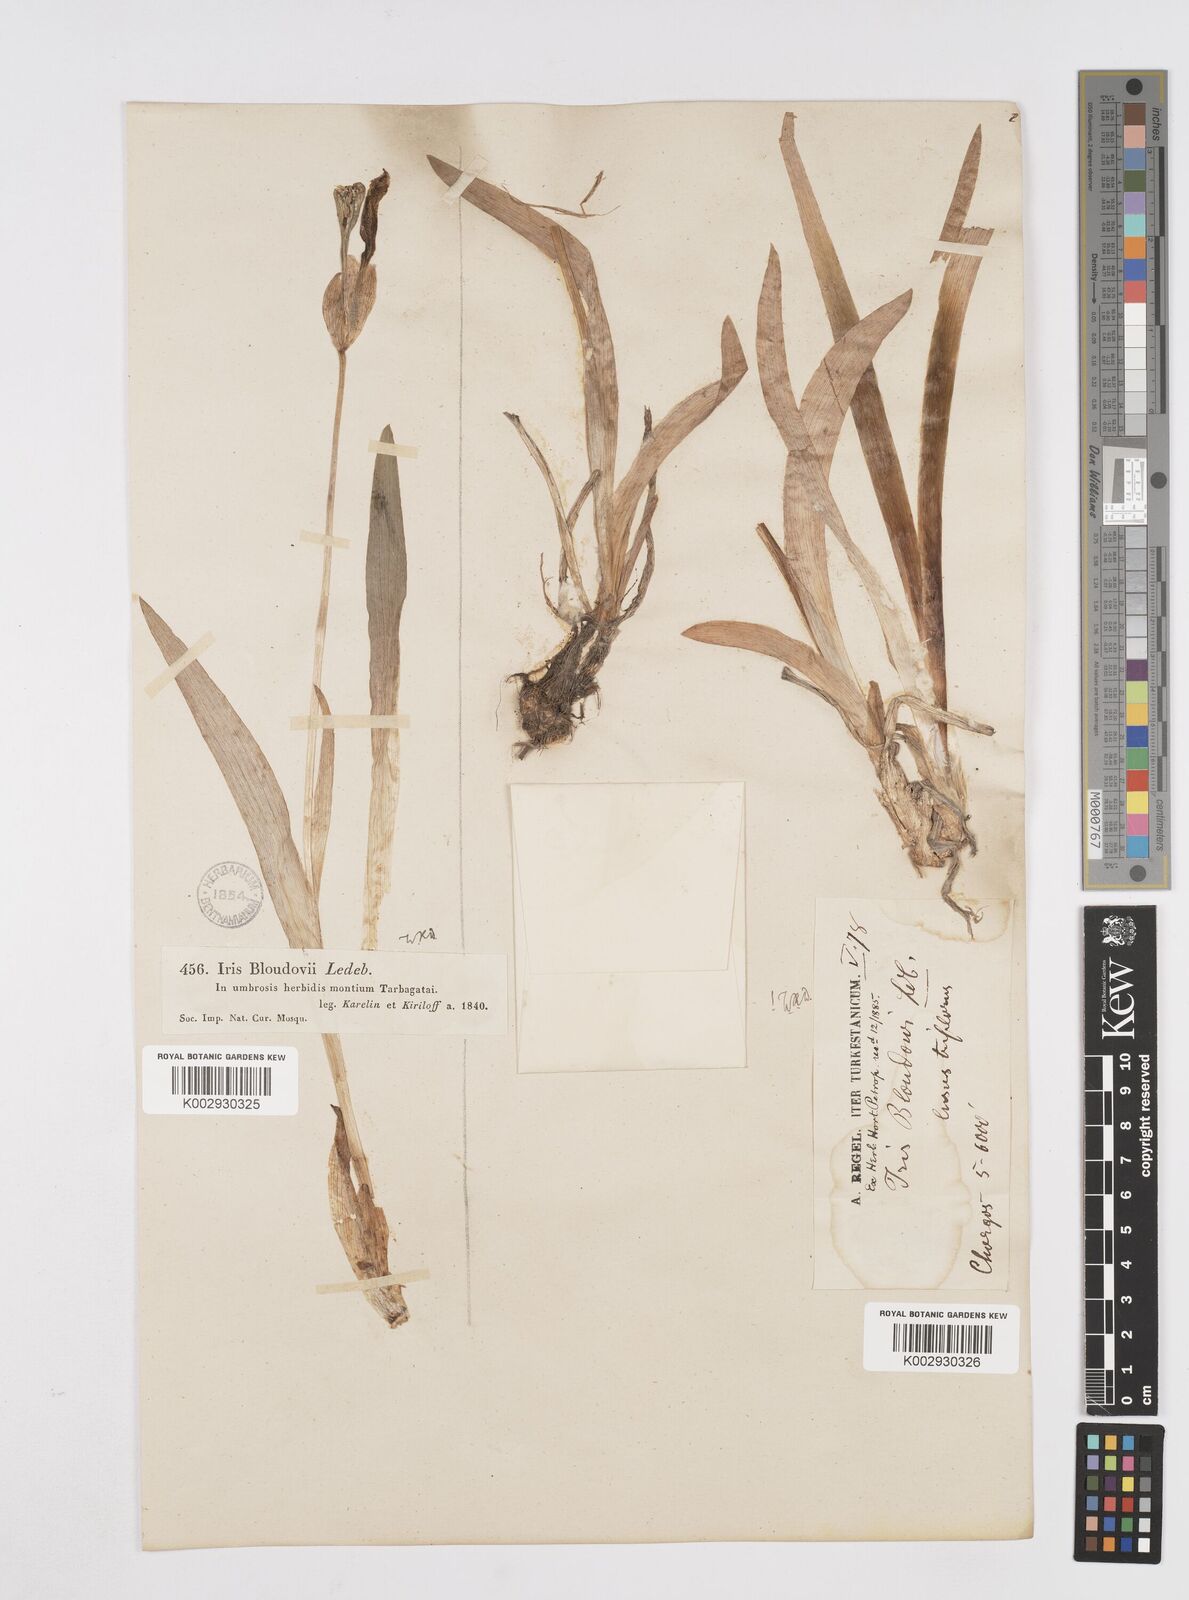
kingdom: Plantae
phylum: Tracheophyta
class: Liliopsida
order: Asparagales
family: Iridaceae
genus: Iris
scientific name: Iris bloudowii
